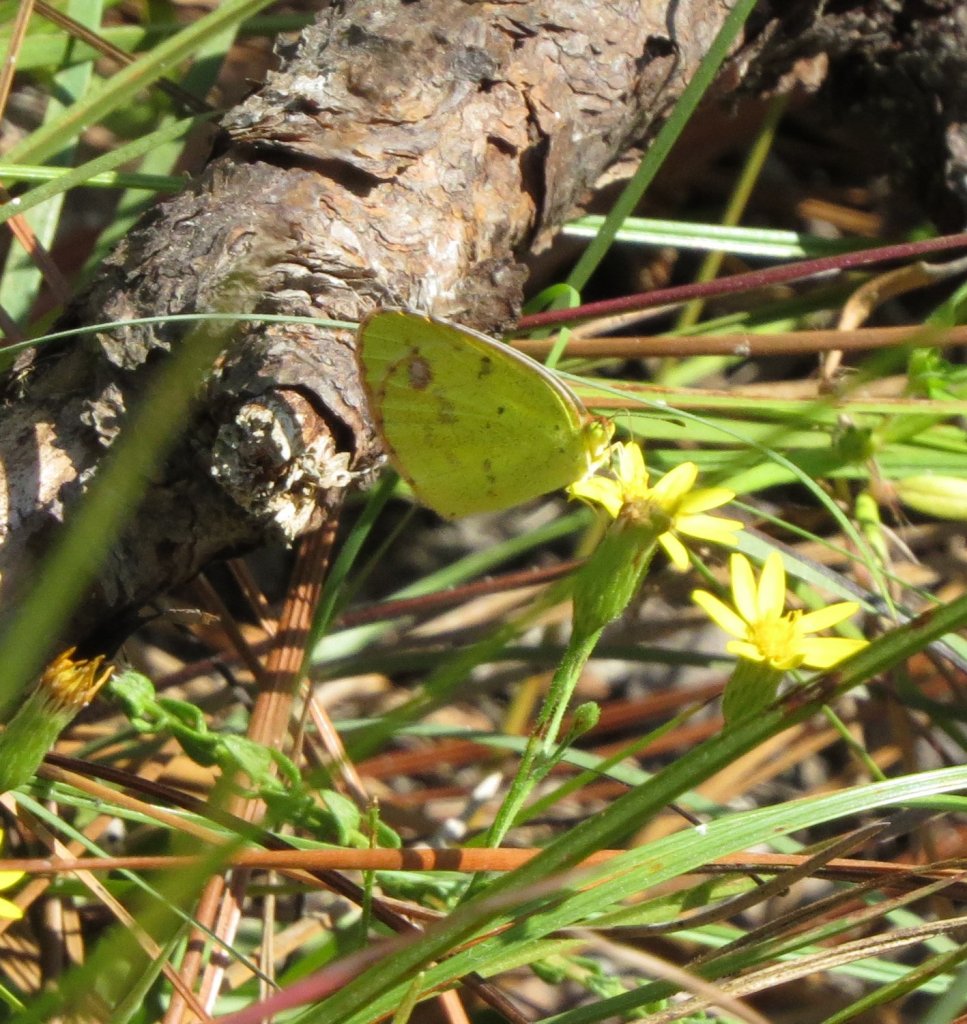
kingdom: Animalia
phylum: Arthropoda
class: Insecta
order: Lepidoptera
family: Pieridae
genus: Pyrisitia
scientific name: Pyrisitia lisa
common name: Little Yellow
